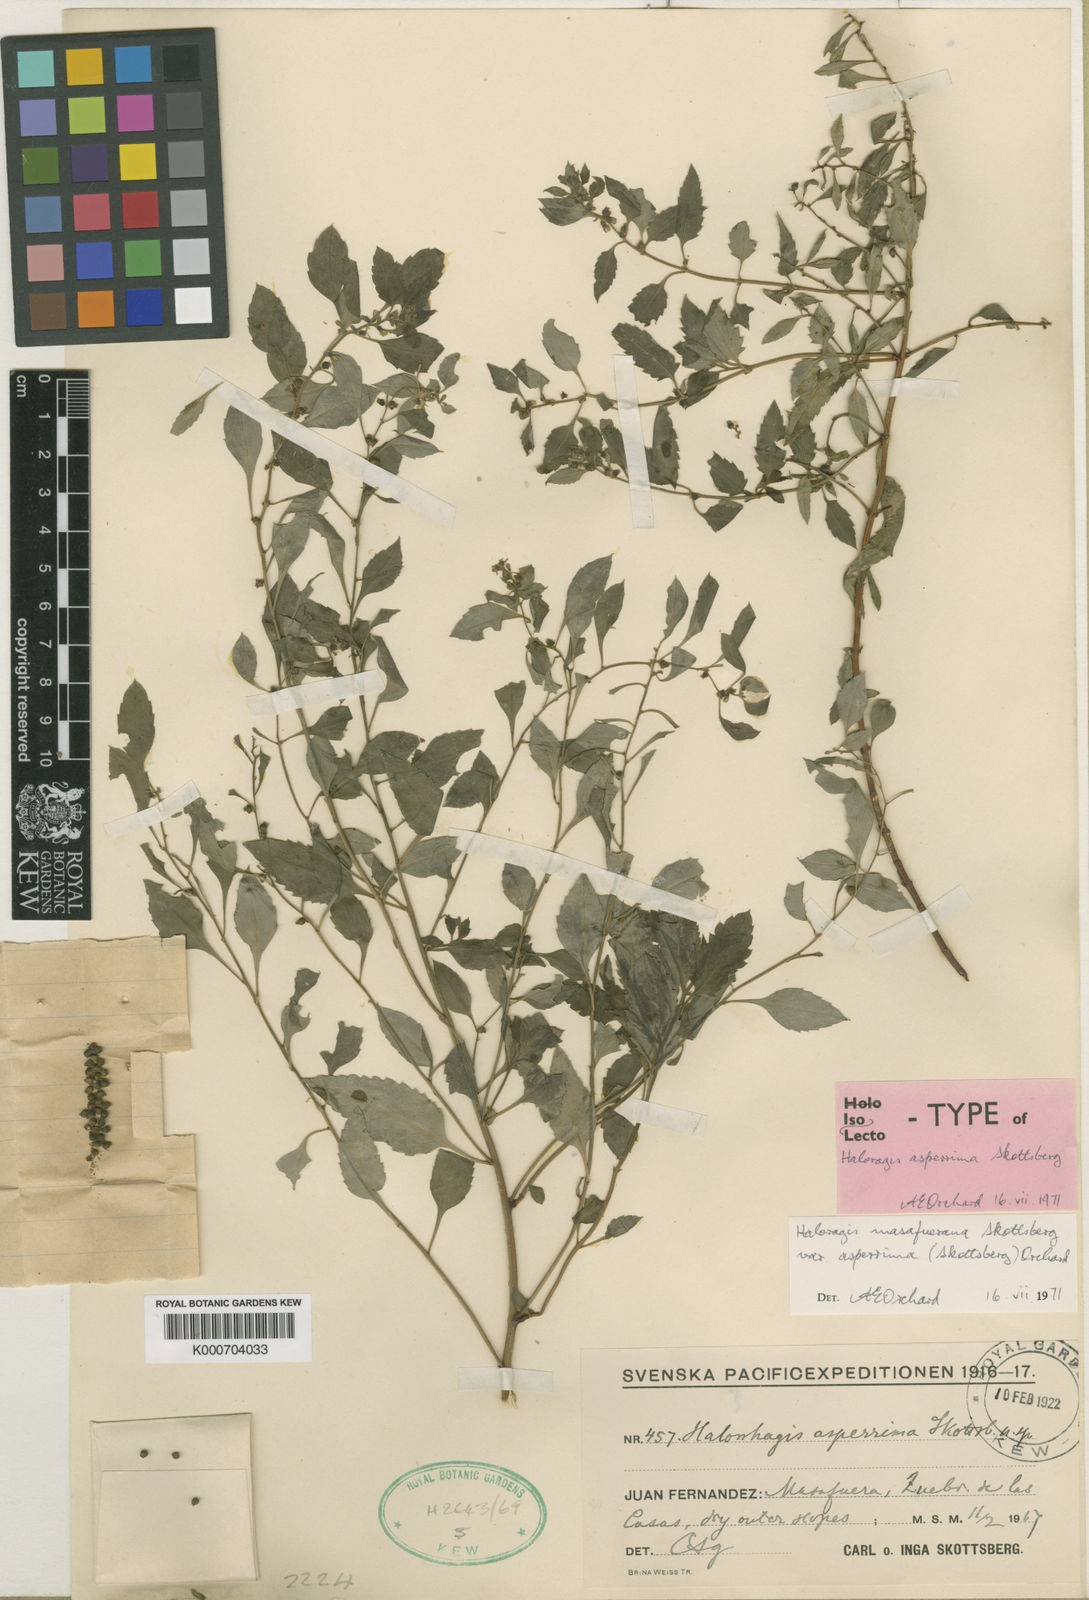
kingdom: Plantae
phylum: Tracheophyta
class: Magnoliopsida
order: Saxifragales
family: Haloragaceae
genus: Haloragis
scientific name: Haloragis masafuerana
